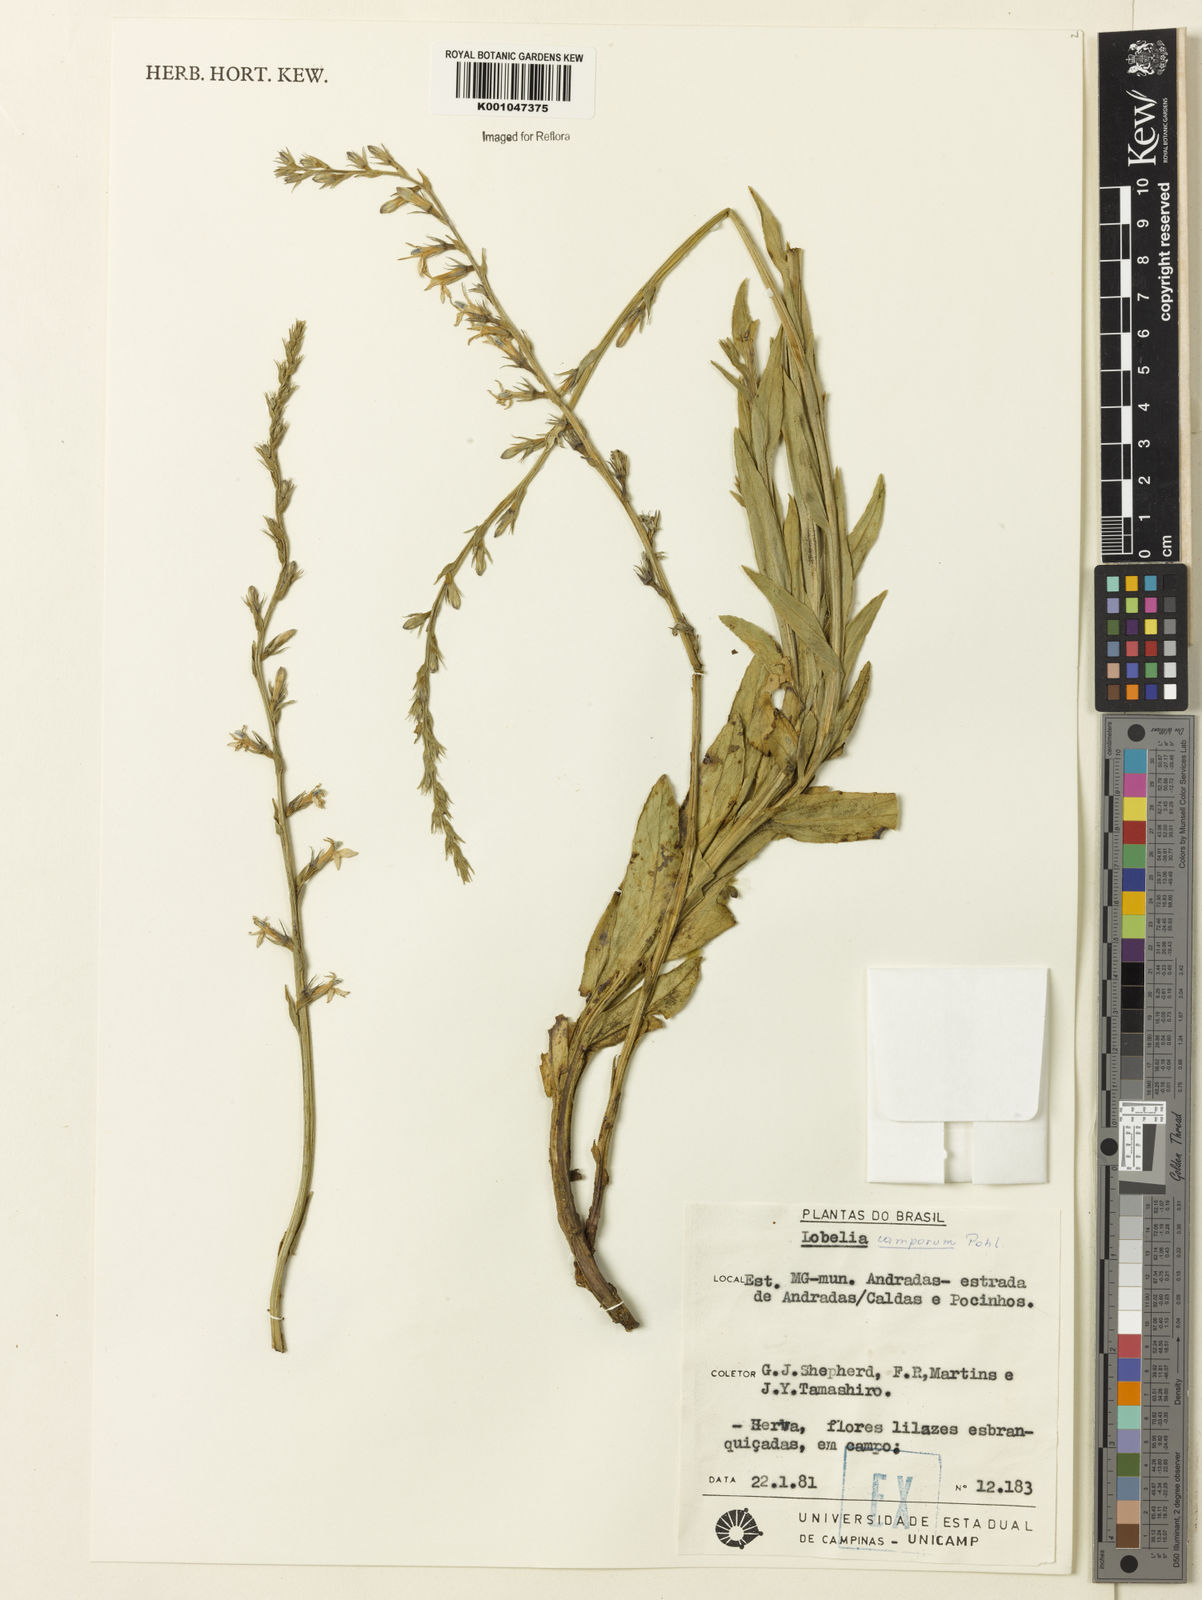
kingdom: Plantae
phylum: Tracheophyta
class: Magnoliopsida
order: Asterales
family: Campanulaceae
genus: Lobelia
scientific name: Lobelia camporum
